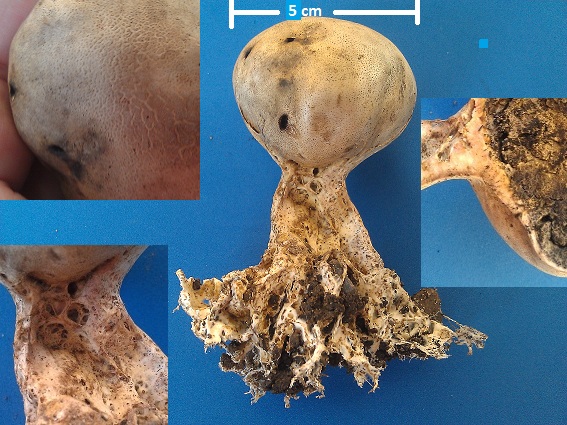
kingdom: Fungi
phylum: Basidiomycota
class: Agaricomycetes
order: Boletales
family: Sclerodermataceae
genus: Scleroderma
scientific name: Scleroderma verrucosum
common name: stilket bruskbold
